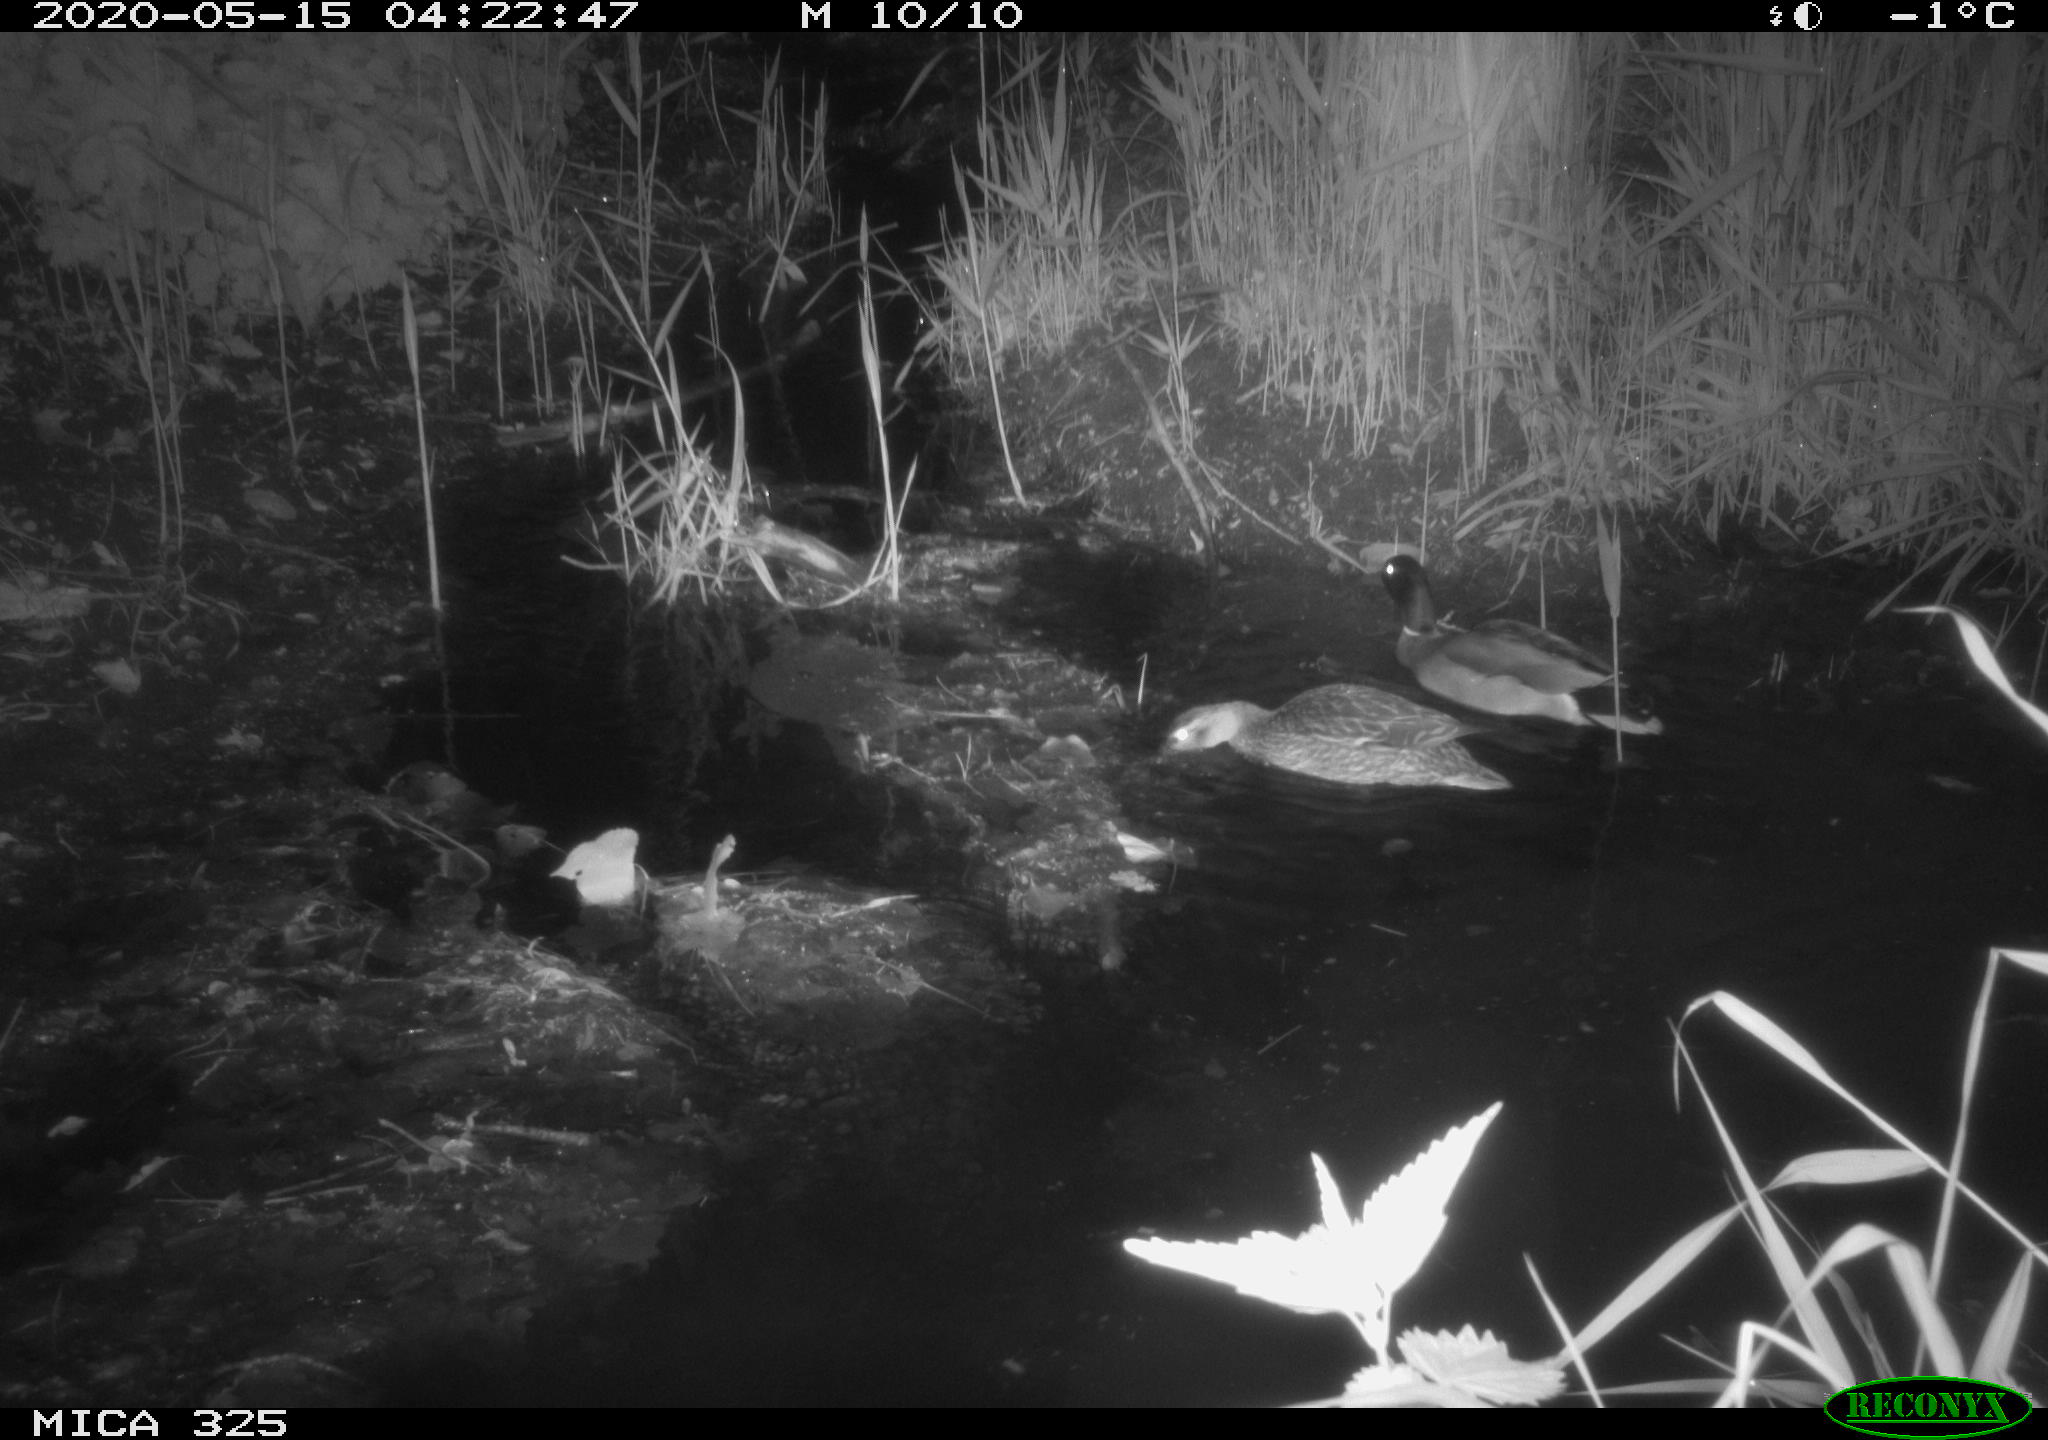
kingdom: Animalia
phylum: Chordata
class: Aves
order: Anseriformes
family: Anatidae
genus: Anas
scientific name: Anas platyrhynchos
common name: Mallard
